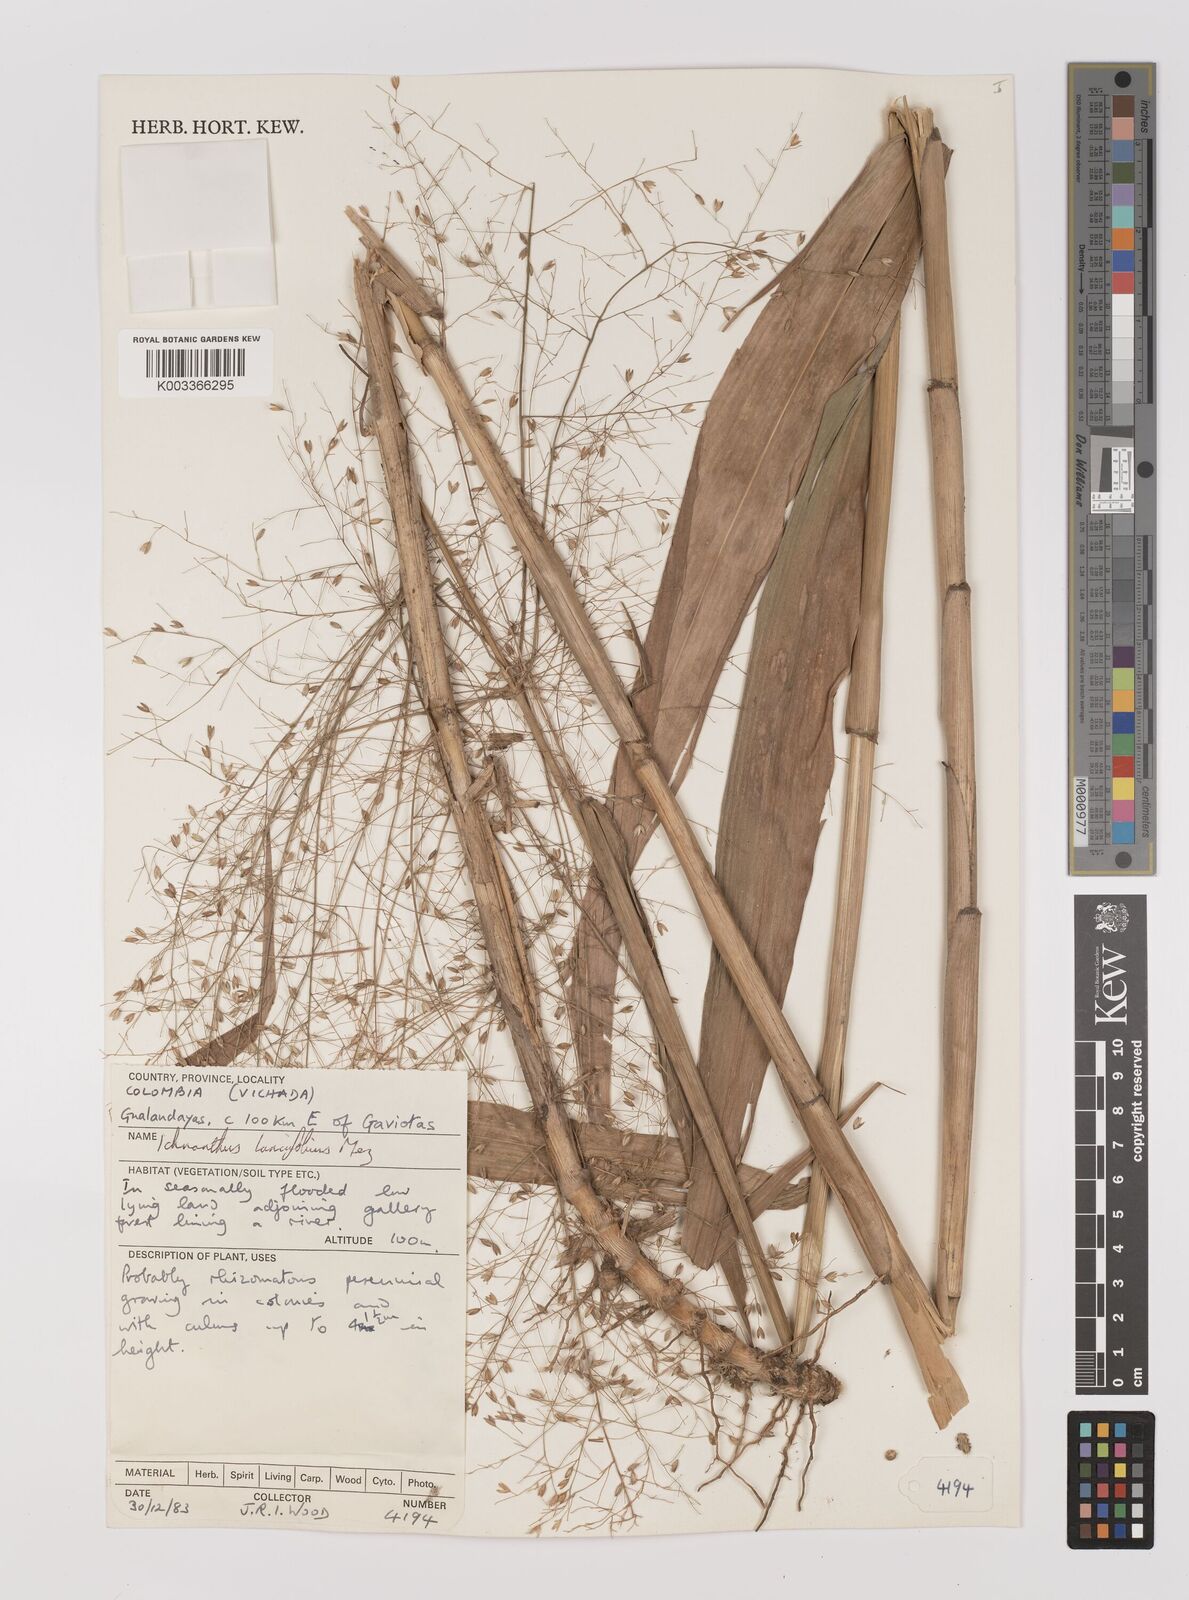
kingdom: Plantae
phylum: Tracheophyta
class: Liliopsida
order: Poales
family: Poaceae
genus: Ichnanthus
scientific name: Ichnanthus calvescens
